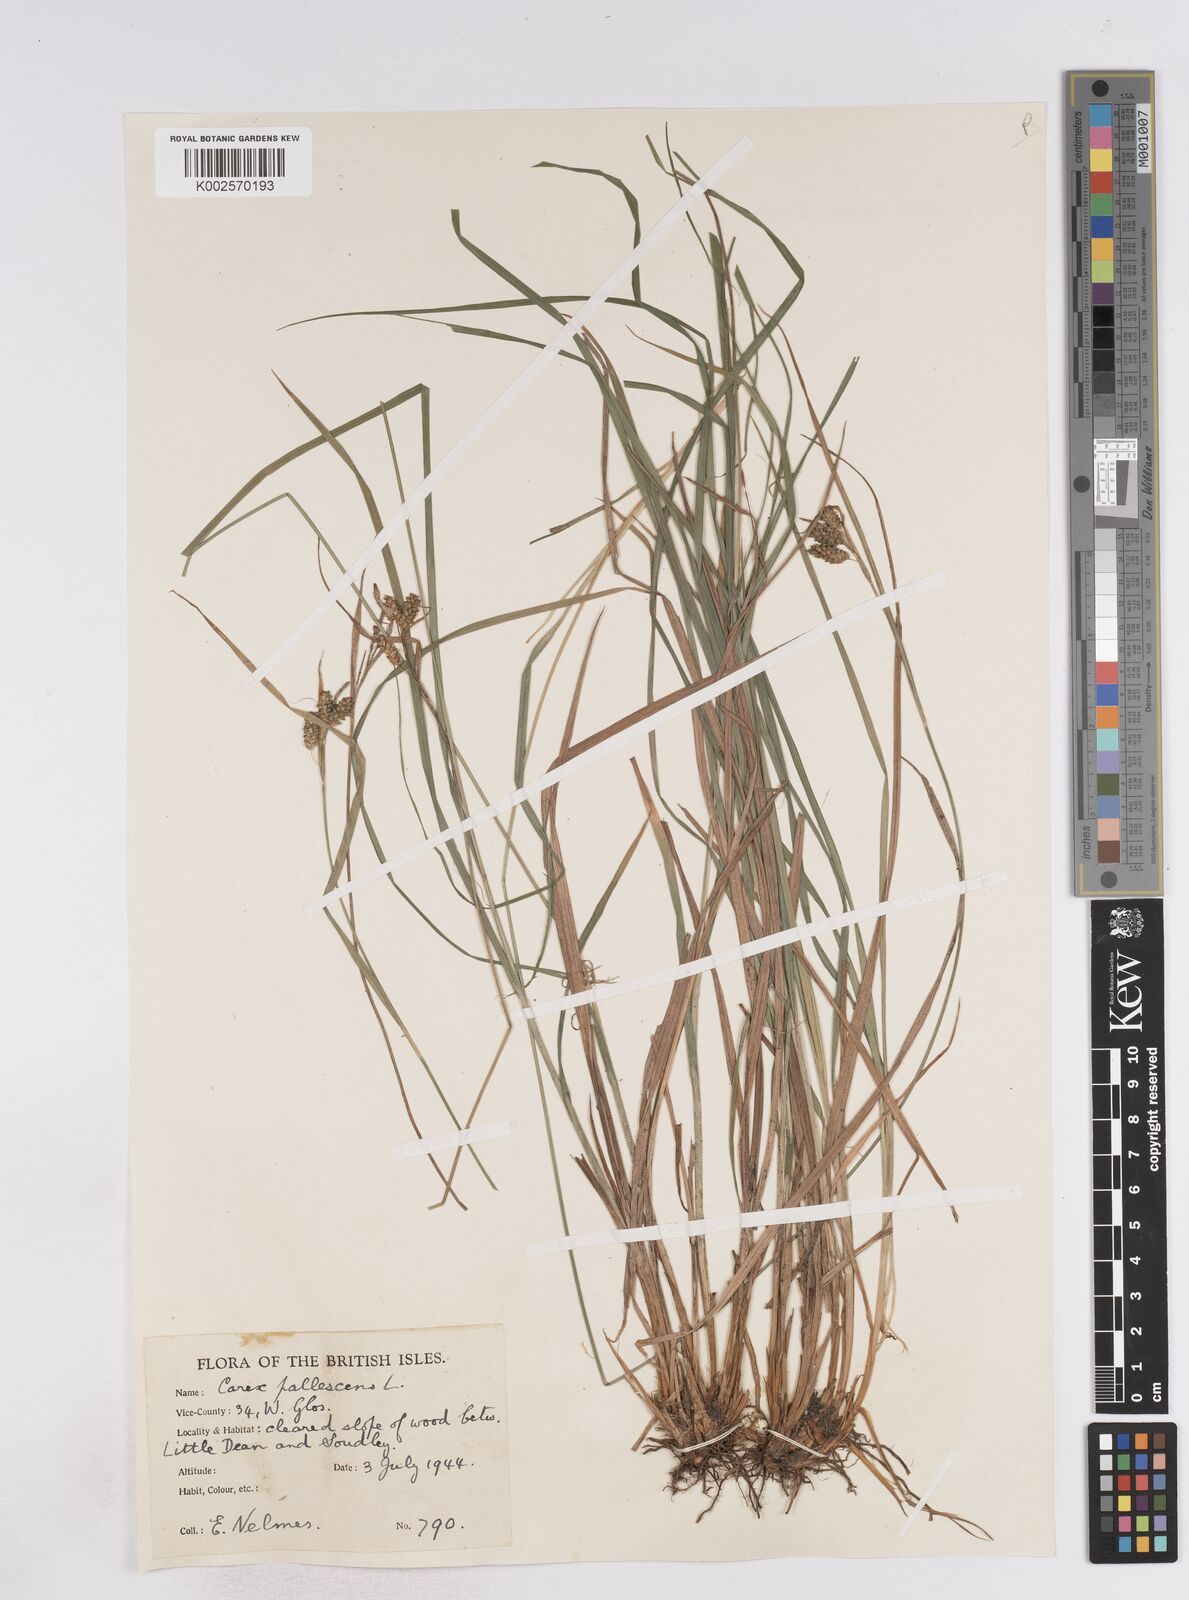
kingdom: Plantae
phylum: Tracheophyta
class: Liliopsida
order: Poales
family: Cyperaceae
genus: Carex
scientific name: Carex pallescens
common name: Pale sedge
